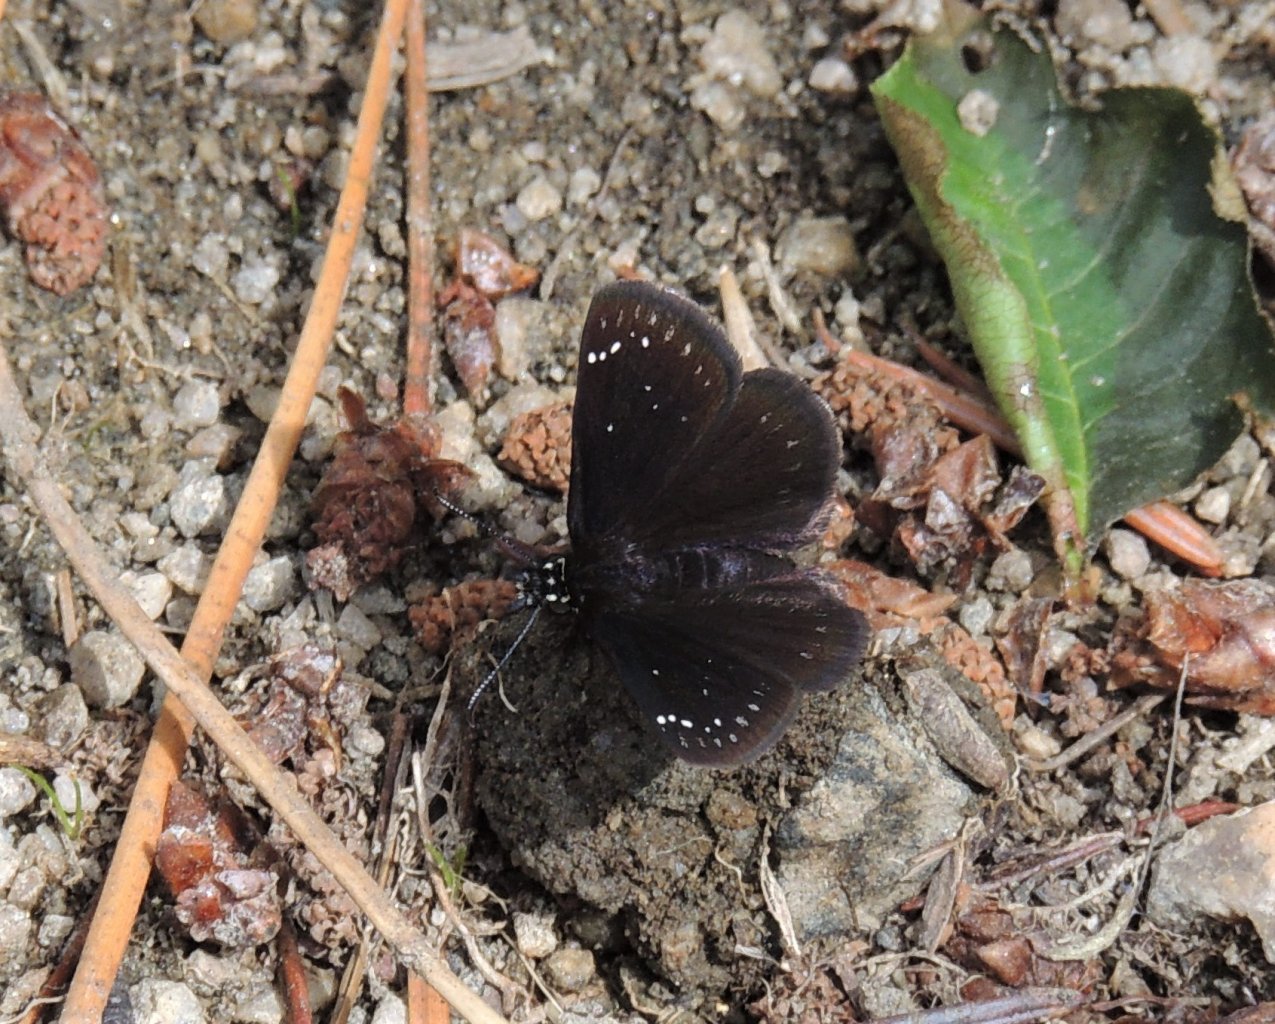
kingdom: Animalia
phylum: Arthropoda
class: Insecta
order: Lepidoptera
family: Hesperiidae
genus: Pholisora
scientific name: Pholisora catullus
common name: Common Sootywing
